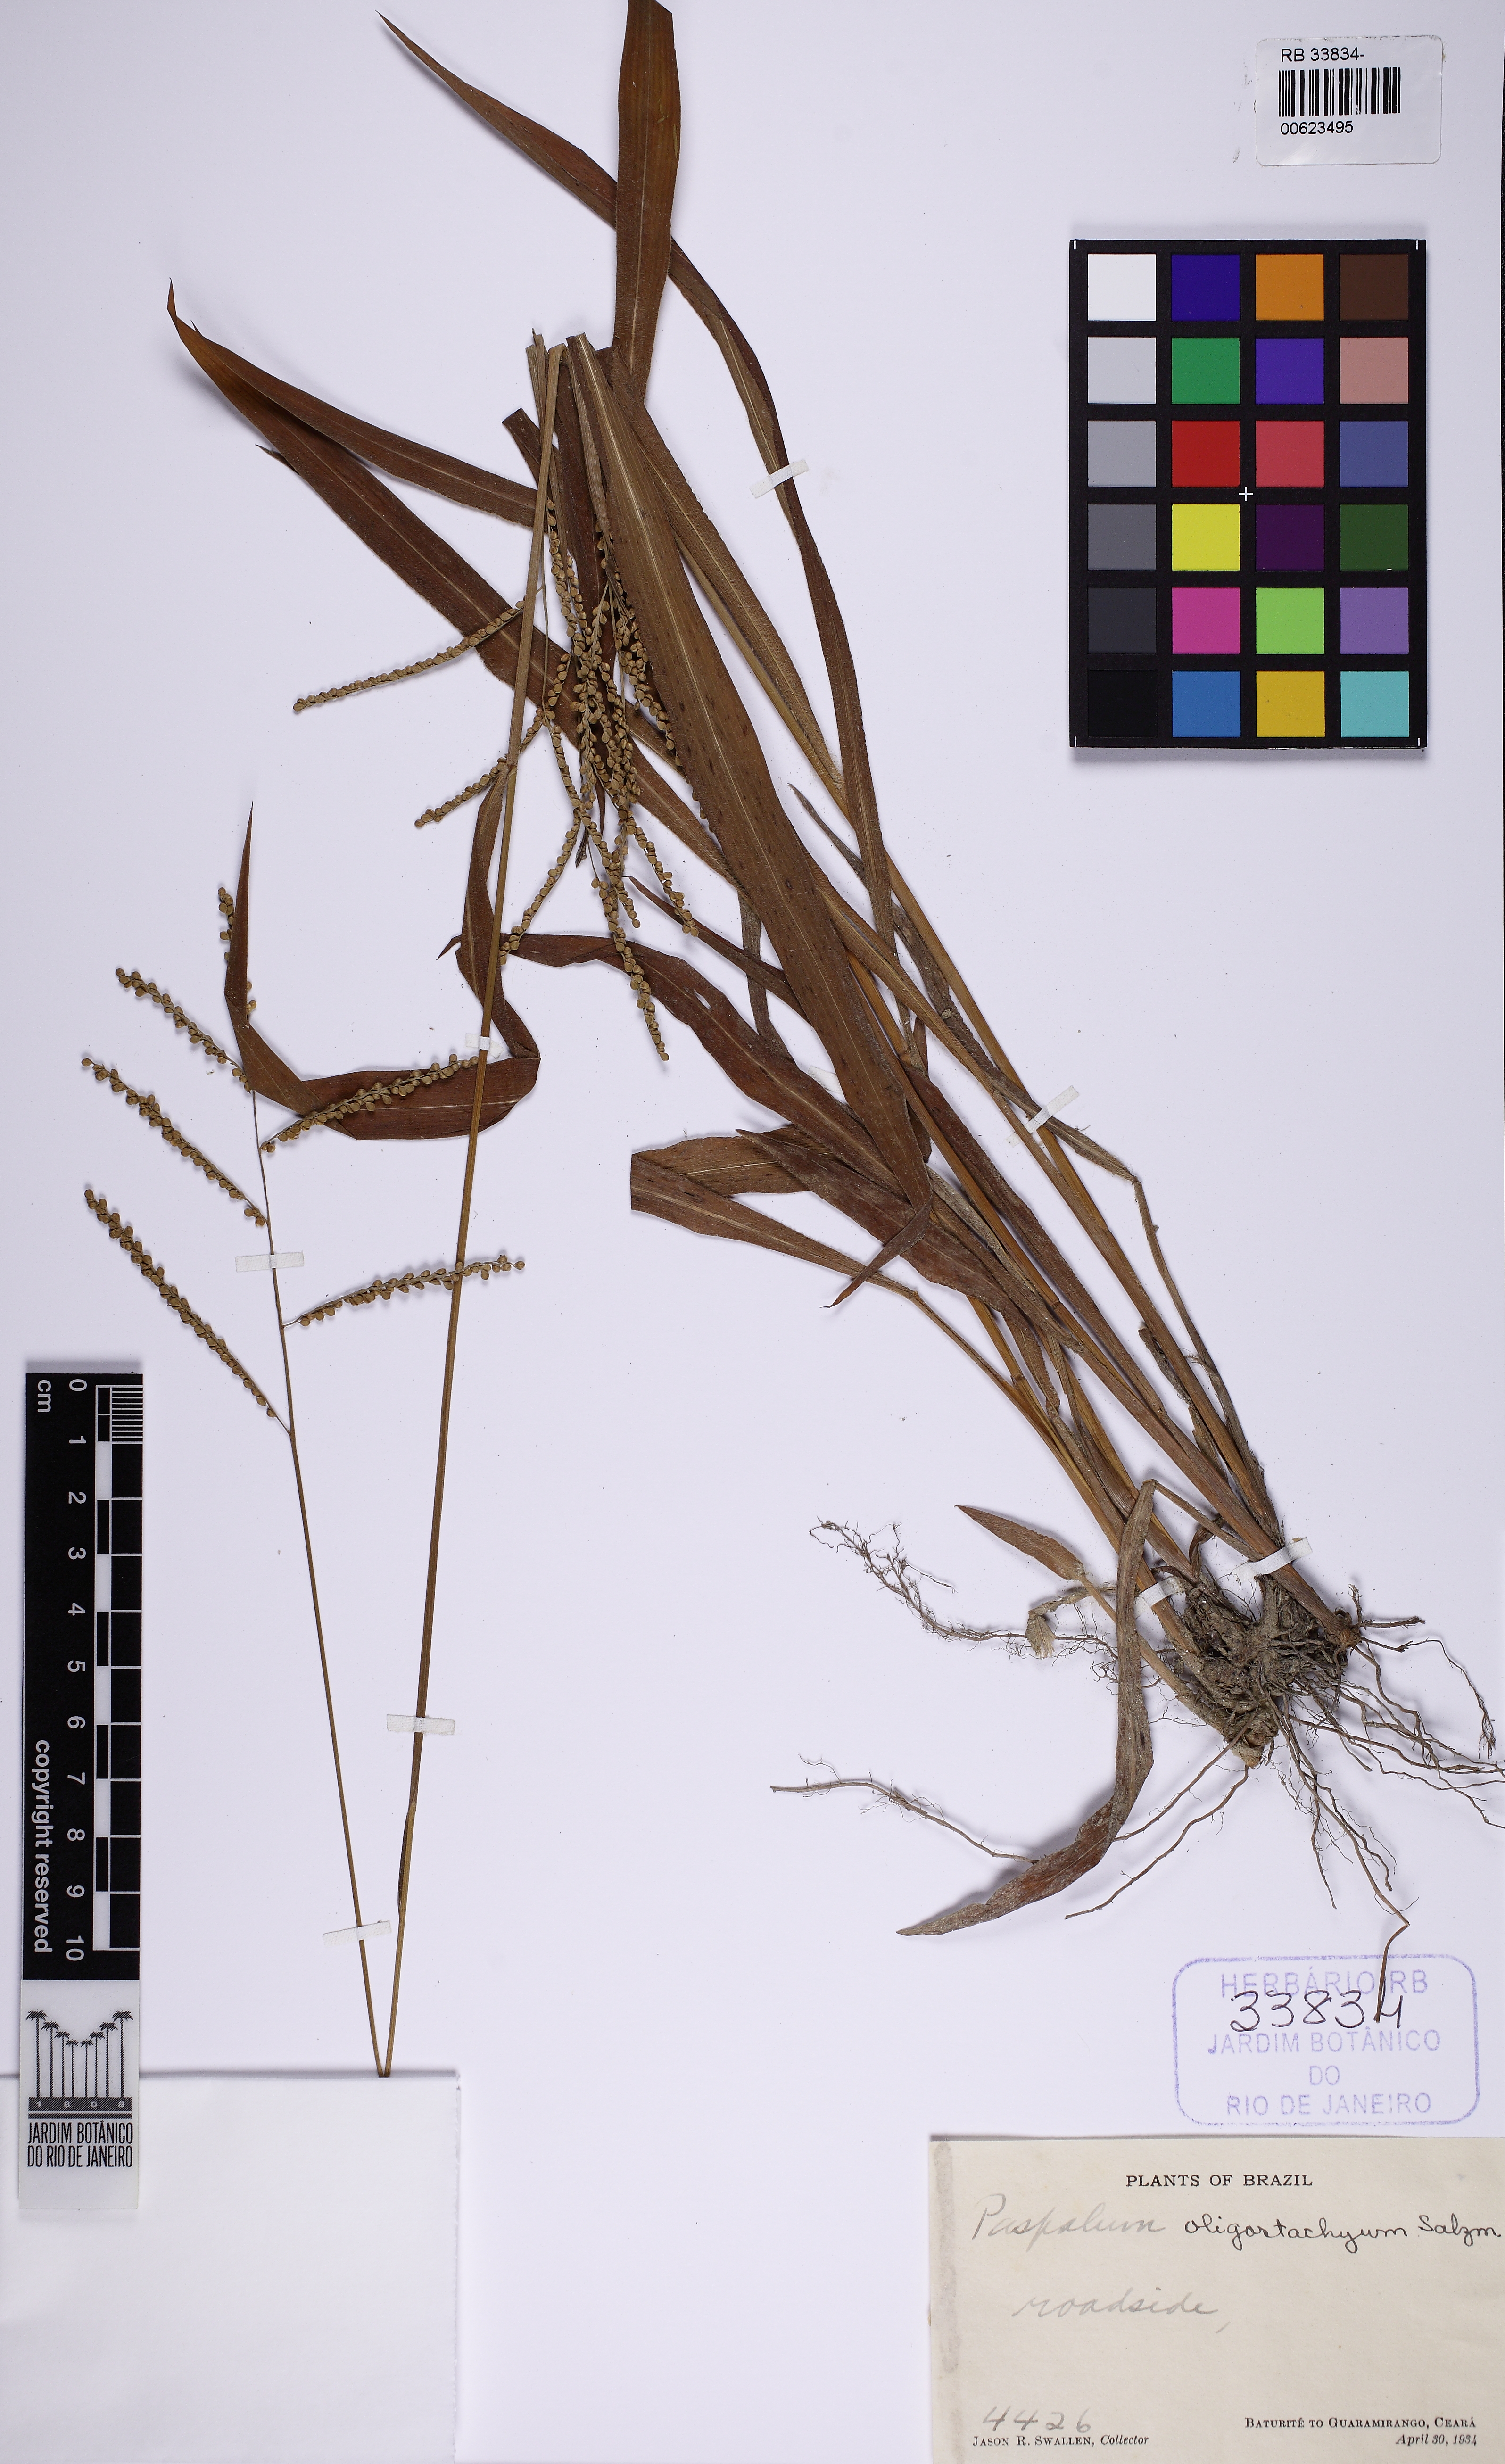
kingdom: Plantae
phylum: Tracheophyta
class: Liliopsida
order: Poales
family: Poaceae
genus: Paspalum
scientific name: Paspalum oligostachyum
